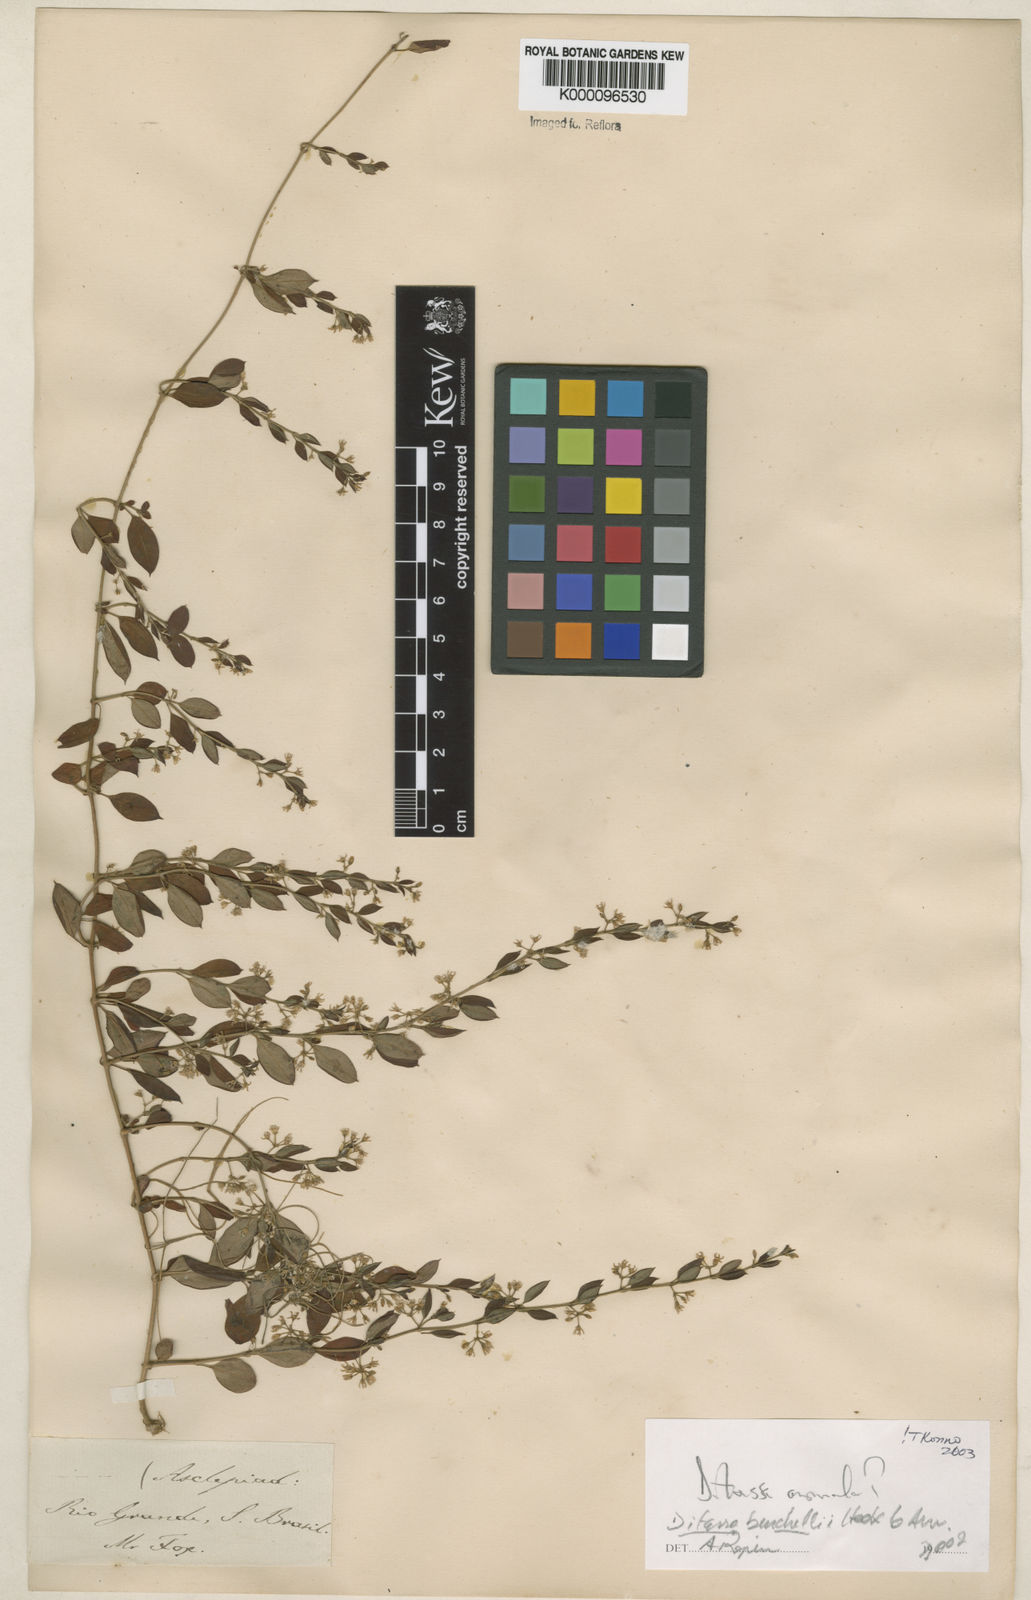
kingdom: Plantae
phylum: Tracheophyta
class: Magnoliopsida
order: Gentianales
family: Apocynaceae
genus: Metastelma
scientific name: Metastelma burchellii
